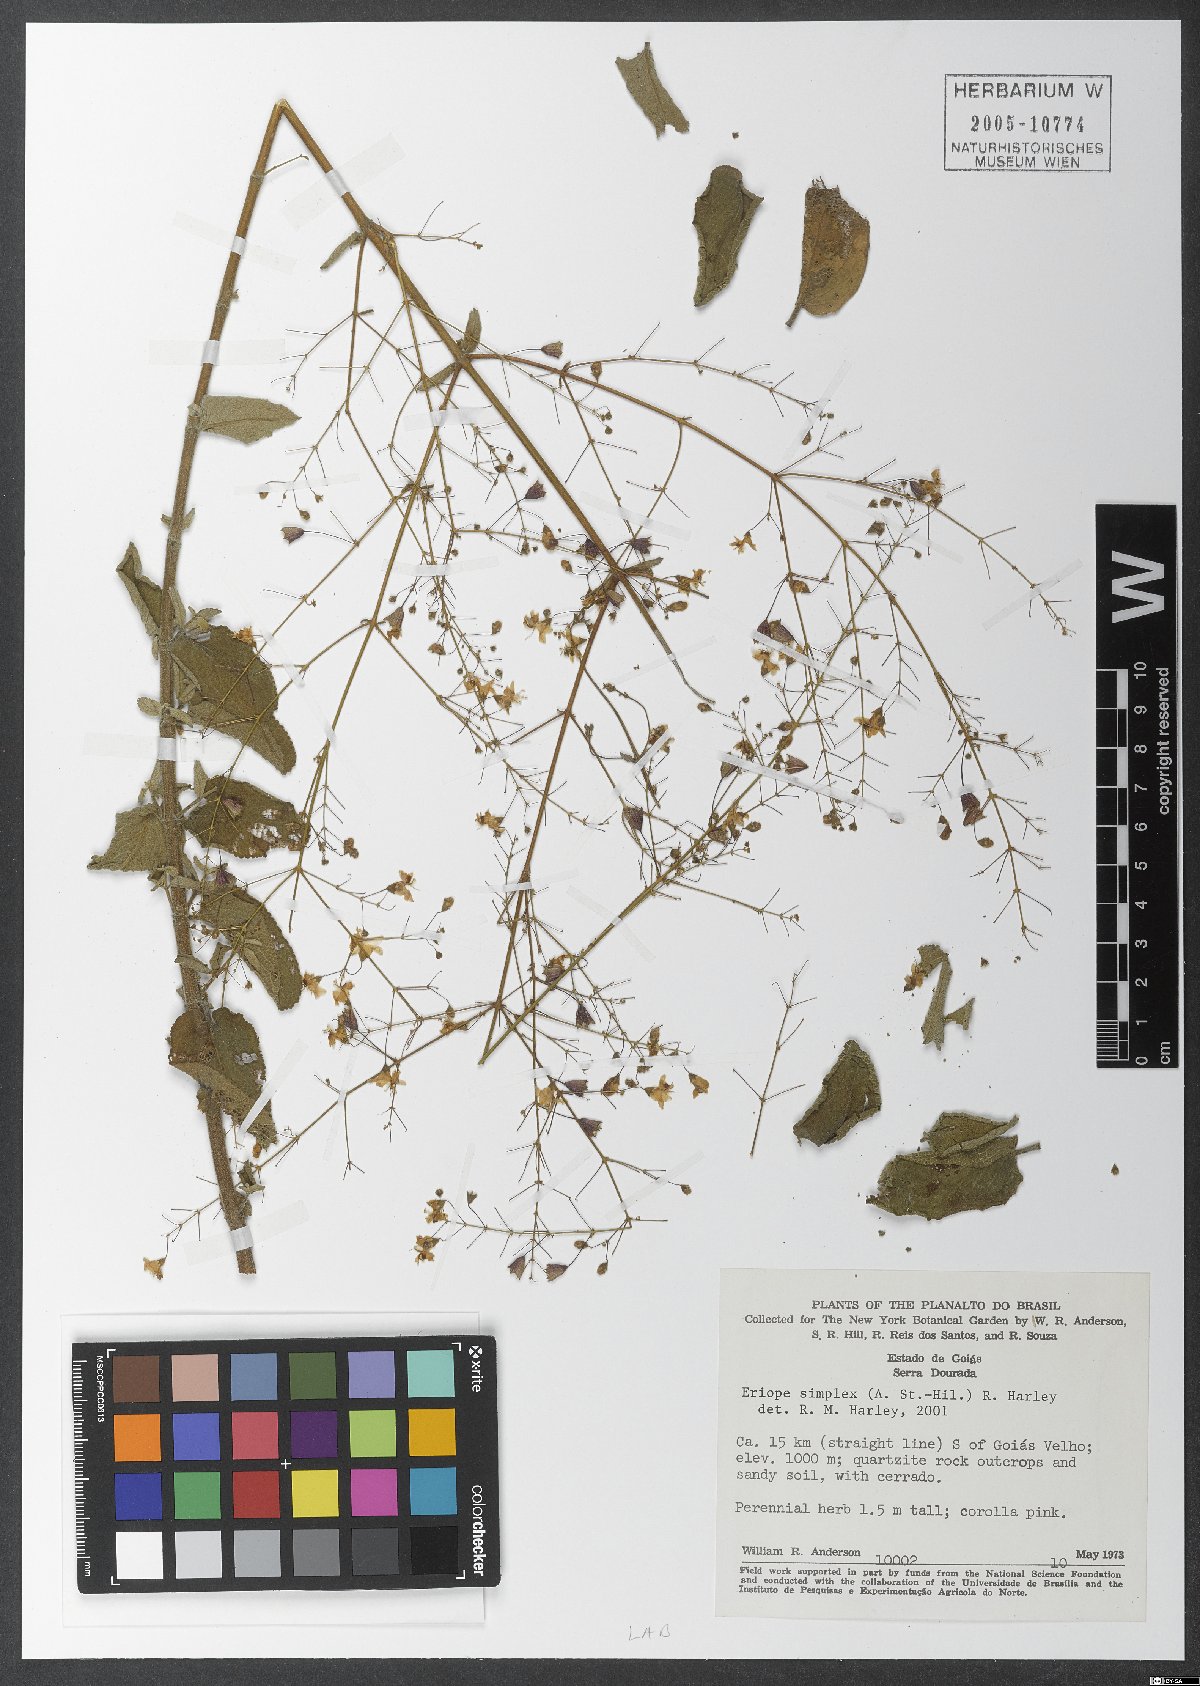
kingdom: Plantae
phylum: Tracheophyta
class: Magnoliopsida
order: Lamiales
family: Lamiaceae
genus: Hypenia
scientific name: Hypenia simplex
